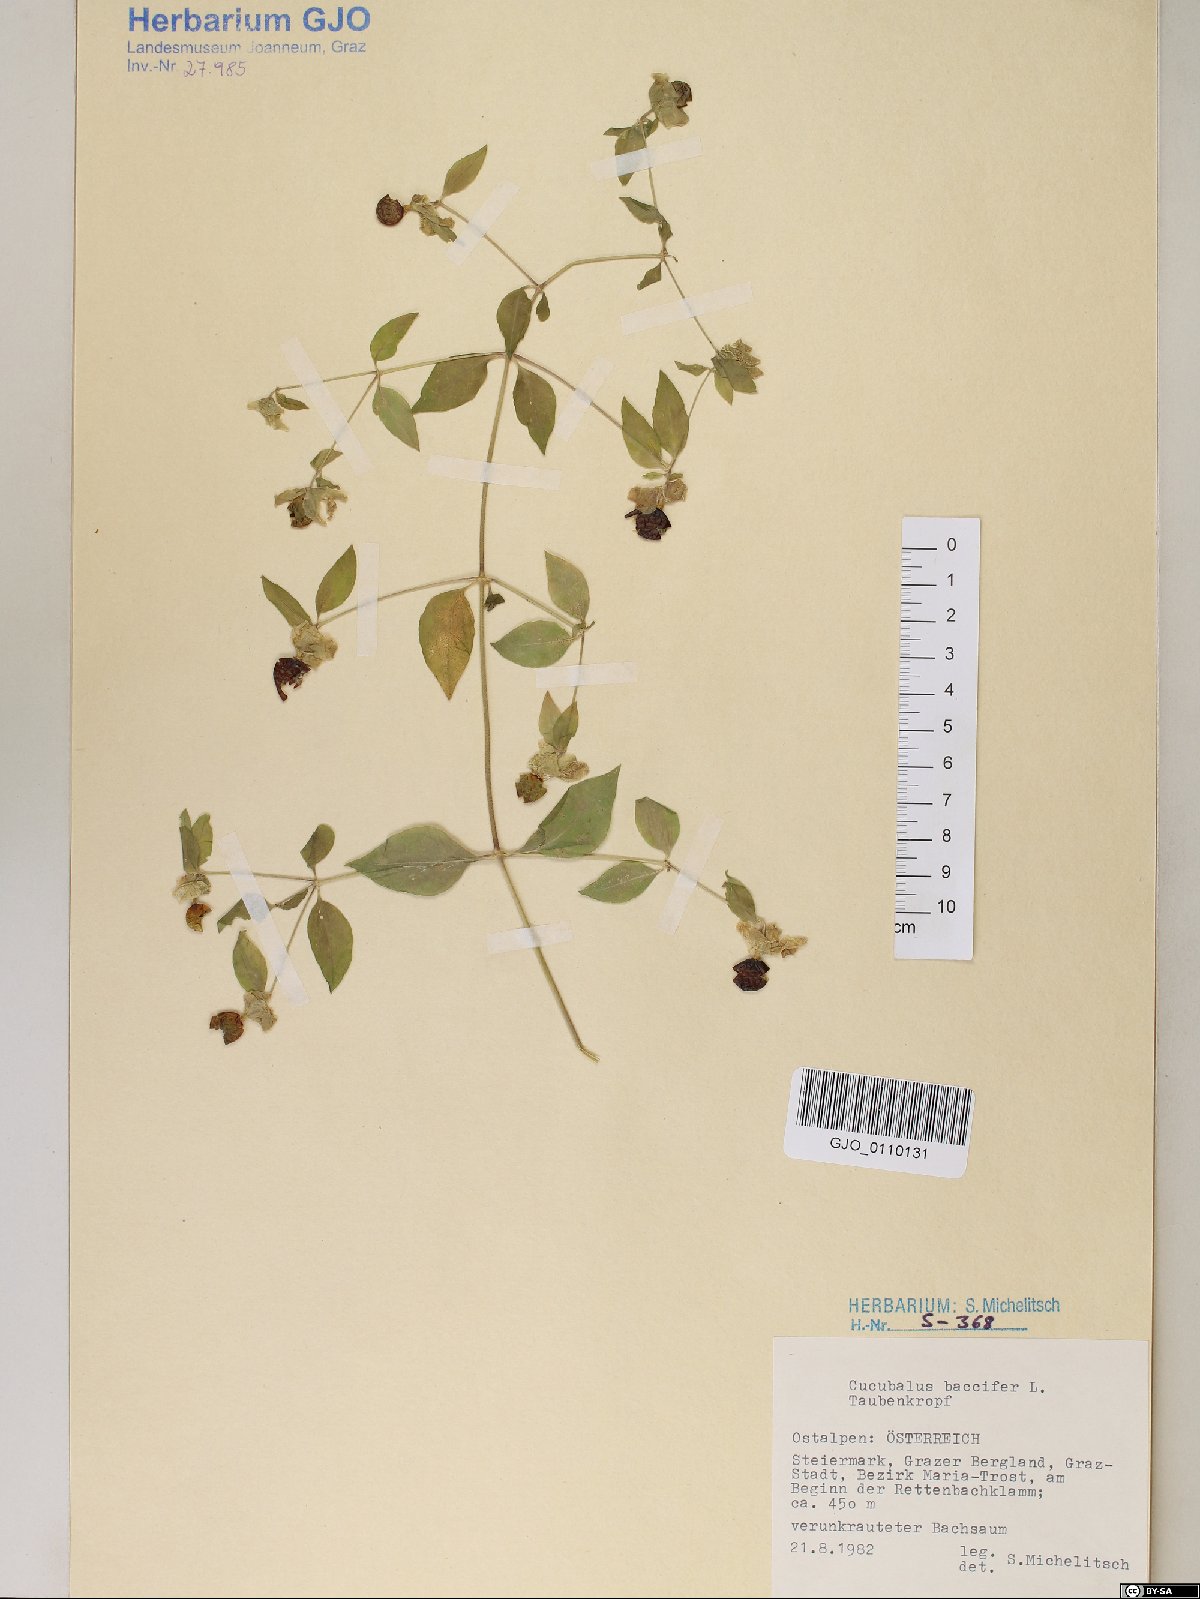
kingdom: Plantae
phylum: Tracheophyta
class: Magnoliopsida
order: Caryophyllales
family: Caryophyllaceae
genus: Silene
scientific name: Silene baccifera
